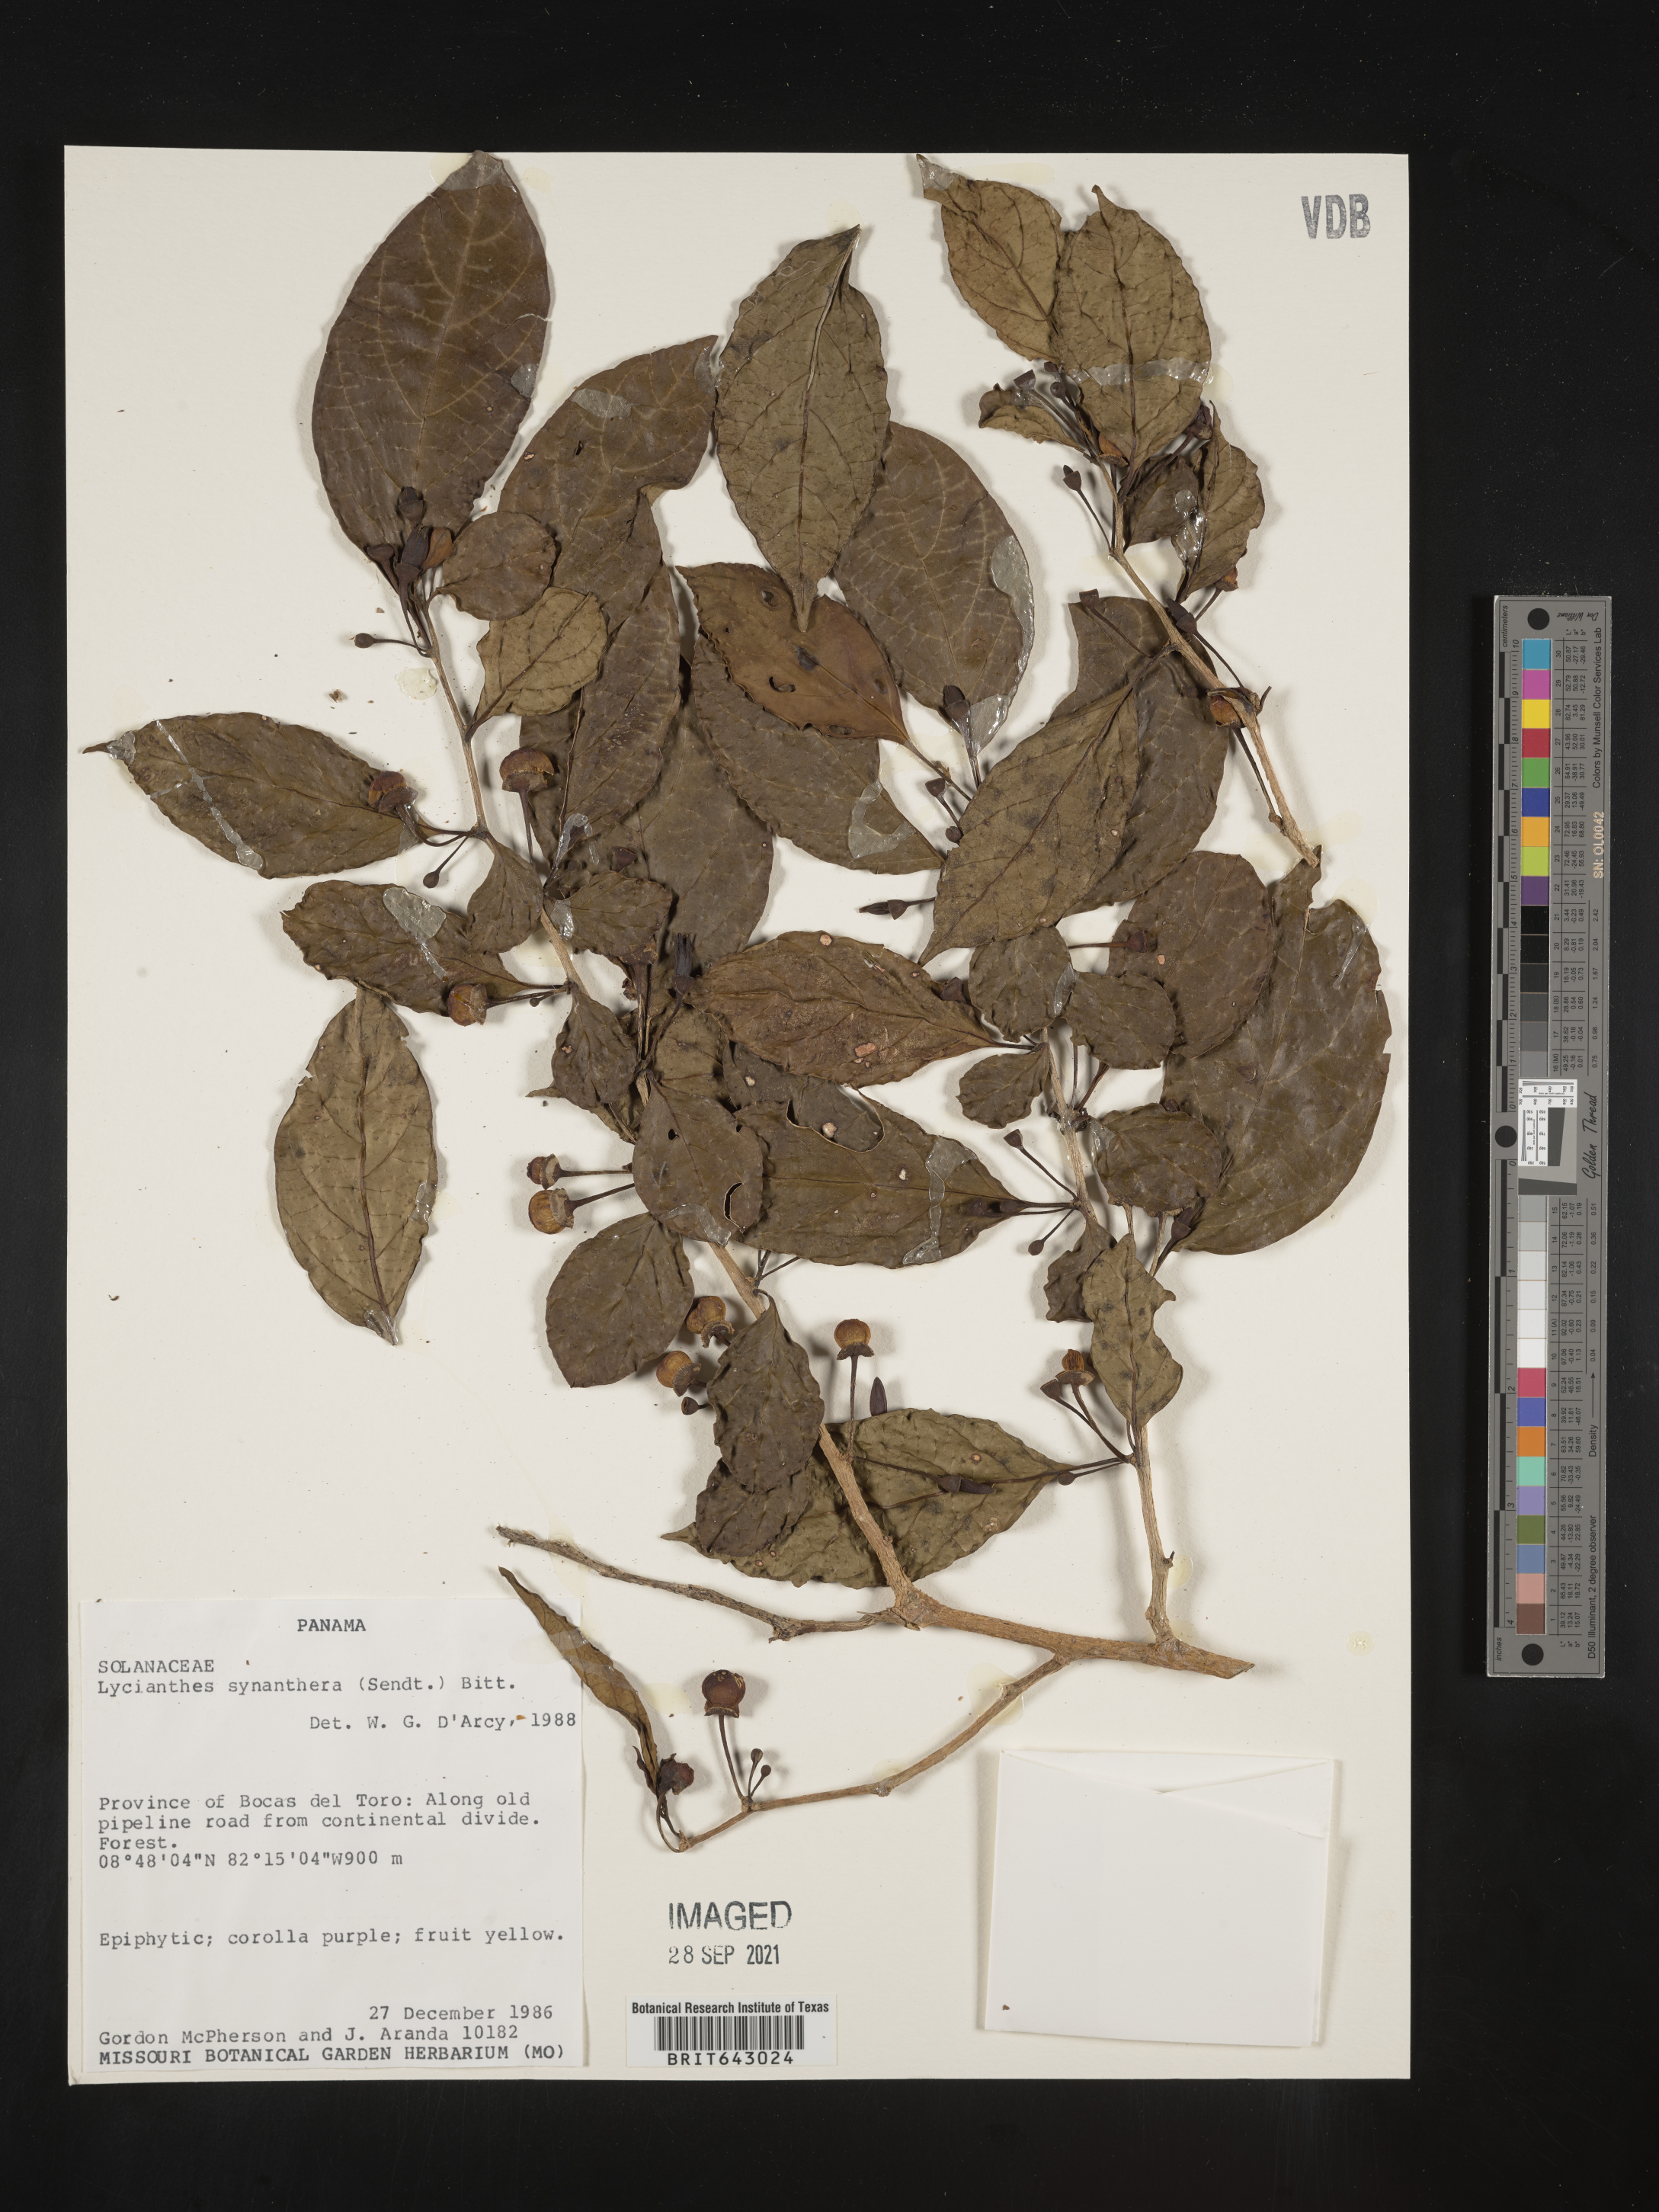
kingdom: Plantae
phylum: Tracheophyta
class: Magnoliopsida
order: Solanales
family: Solanaceae
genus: Lycianthes
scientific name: Lycianthes
